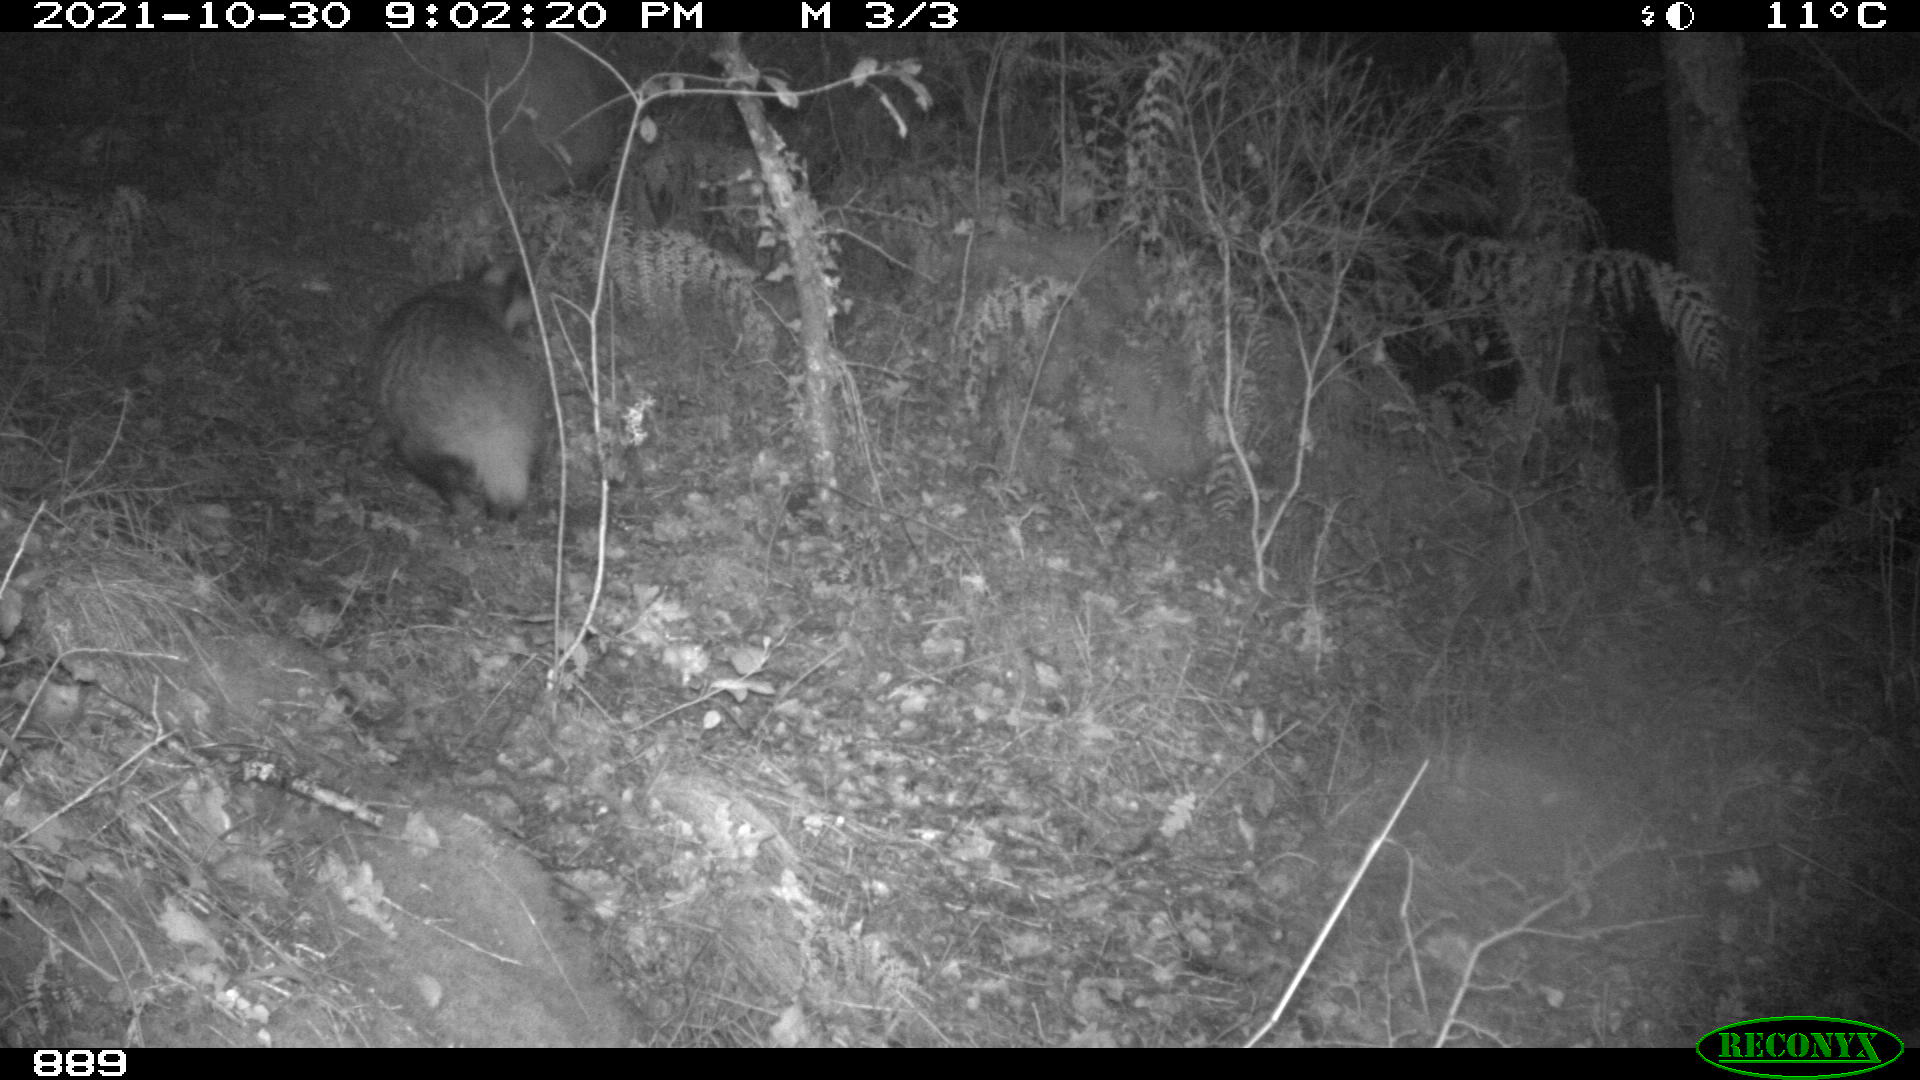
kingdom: Animalia
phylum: Chordata
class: Mammalia
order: Carnivora
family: Mustelidae
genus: Meles
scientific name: Meles meles
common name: Eurasian badger
